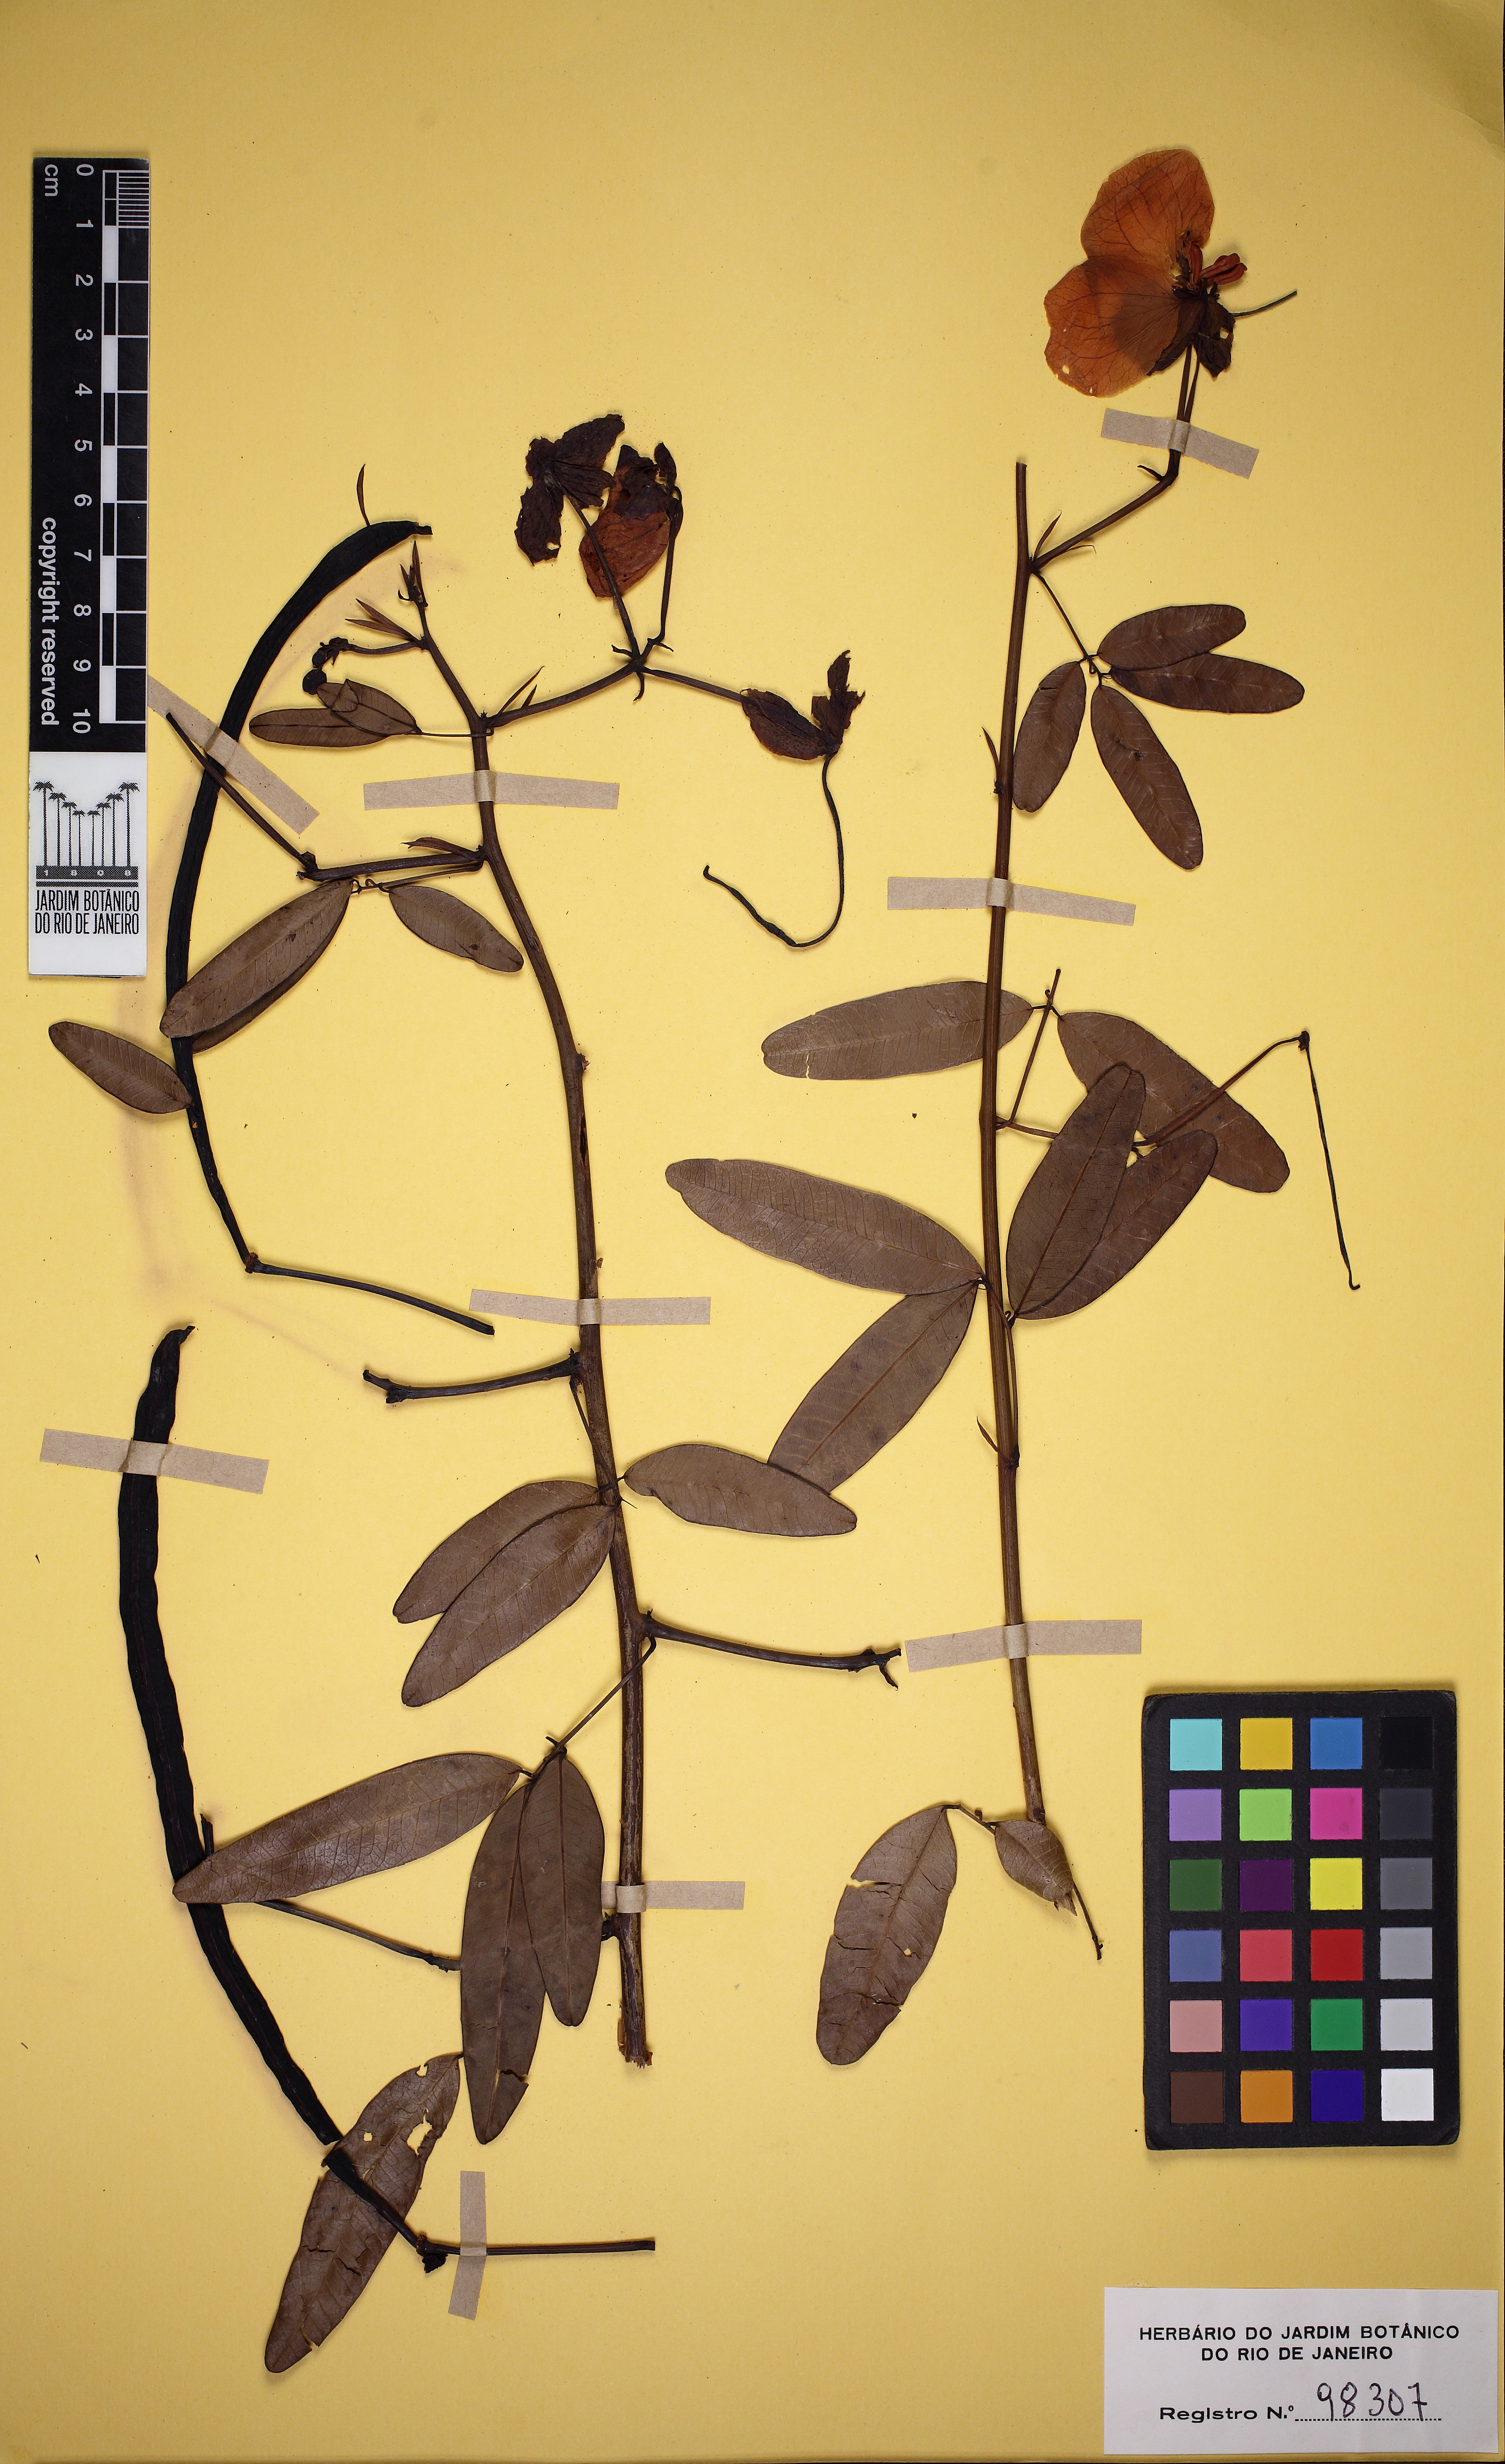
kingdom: Plantae
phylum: Tracheophyta
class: Magnoliopsida
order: Fabales
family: Fabaceae
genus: Senna
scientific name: Senna splendida
